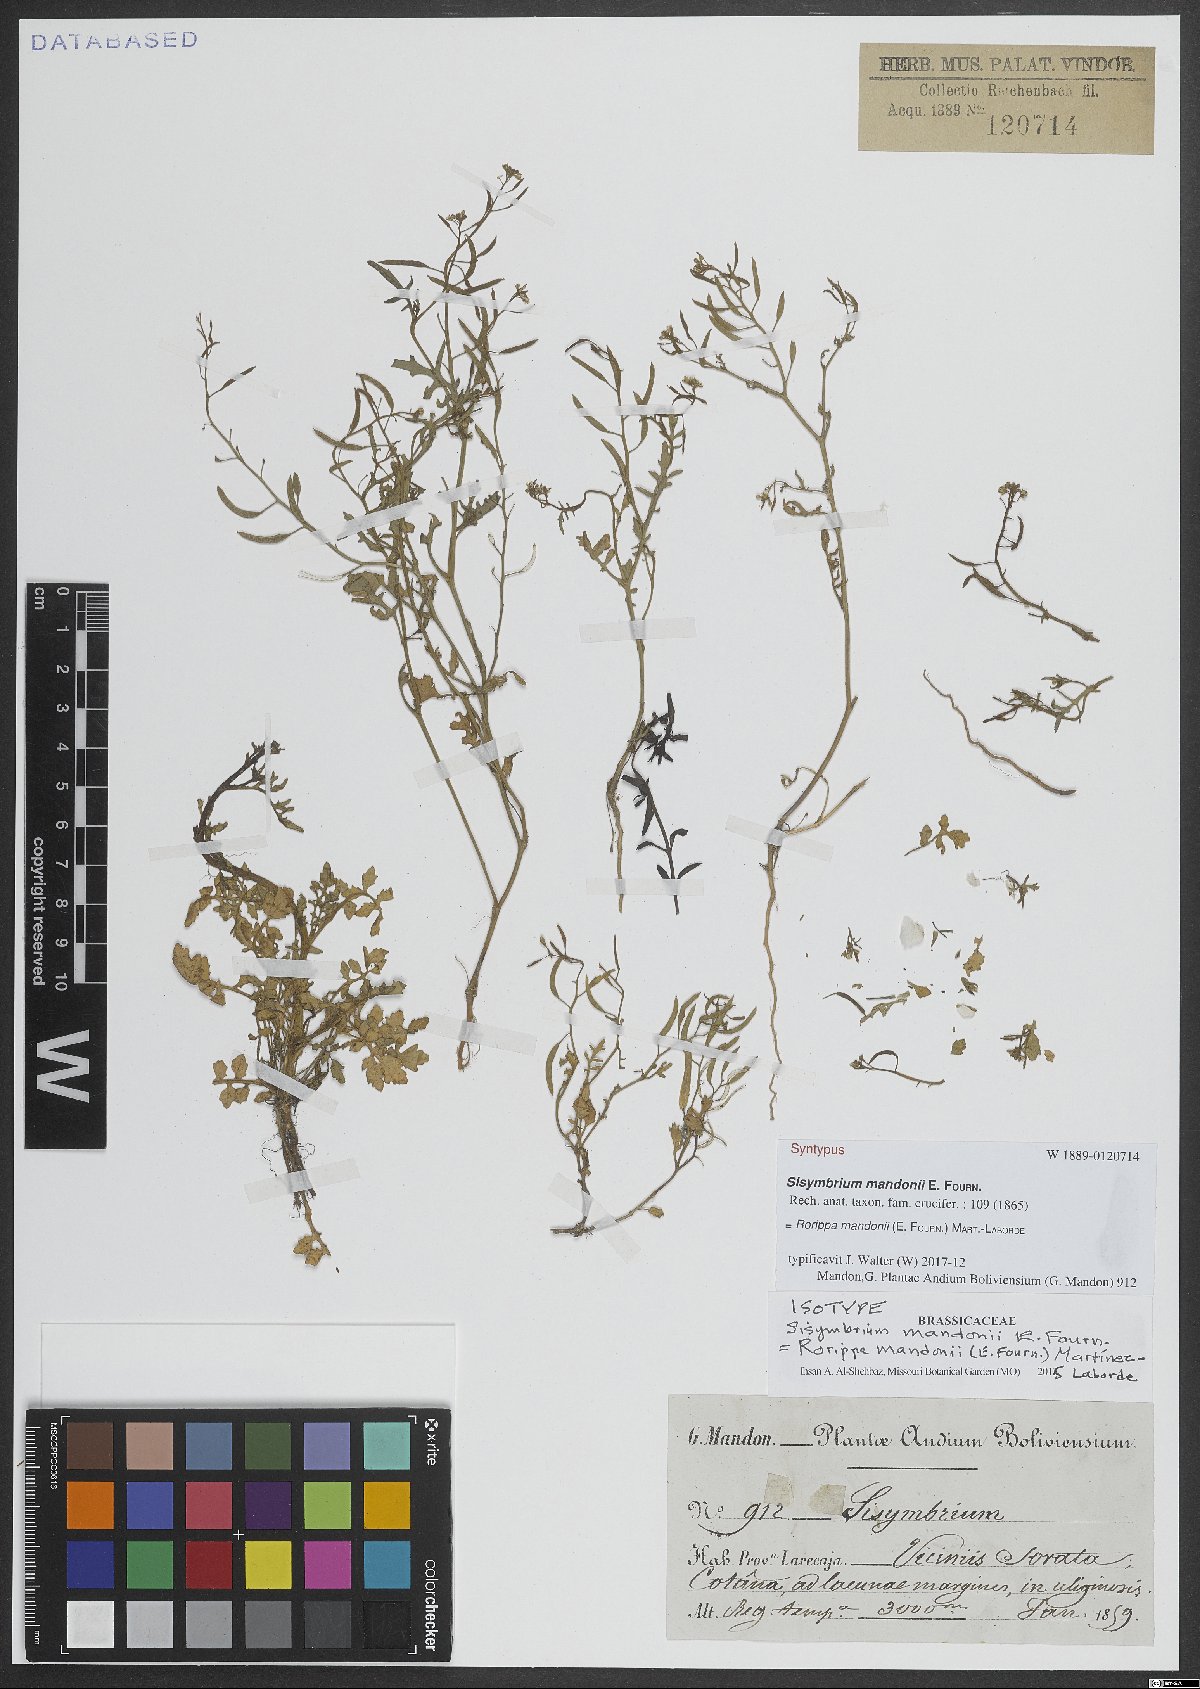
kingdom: Plantae
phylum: Tracheophyta
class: Magnoliopsida
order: Brassicales
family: Brassicaceae
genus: Rorippa
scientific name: Rorippa mandonii
